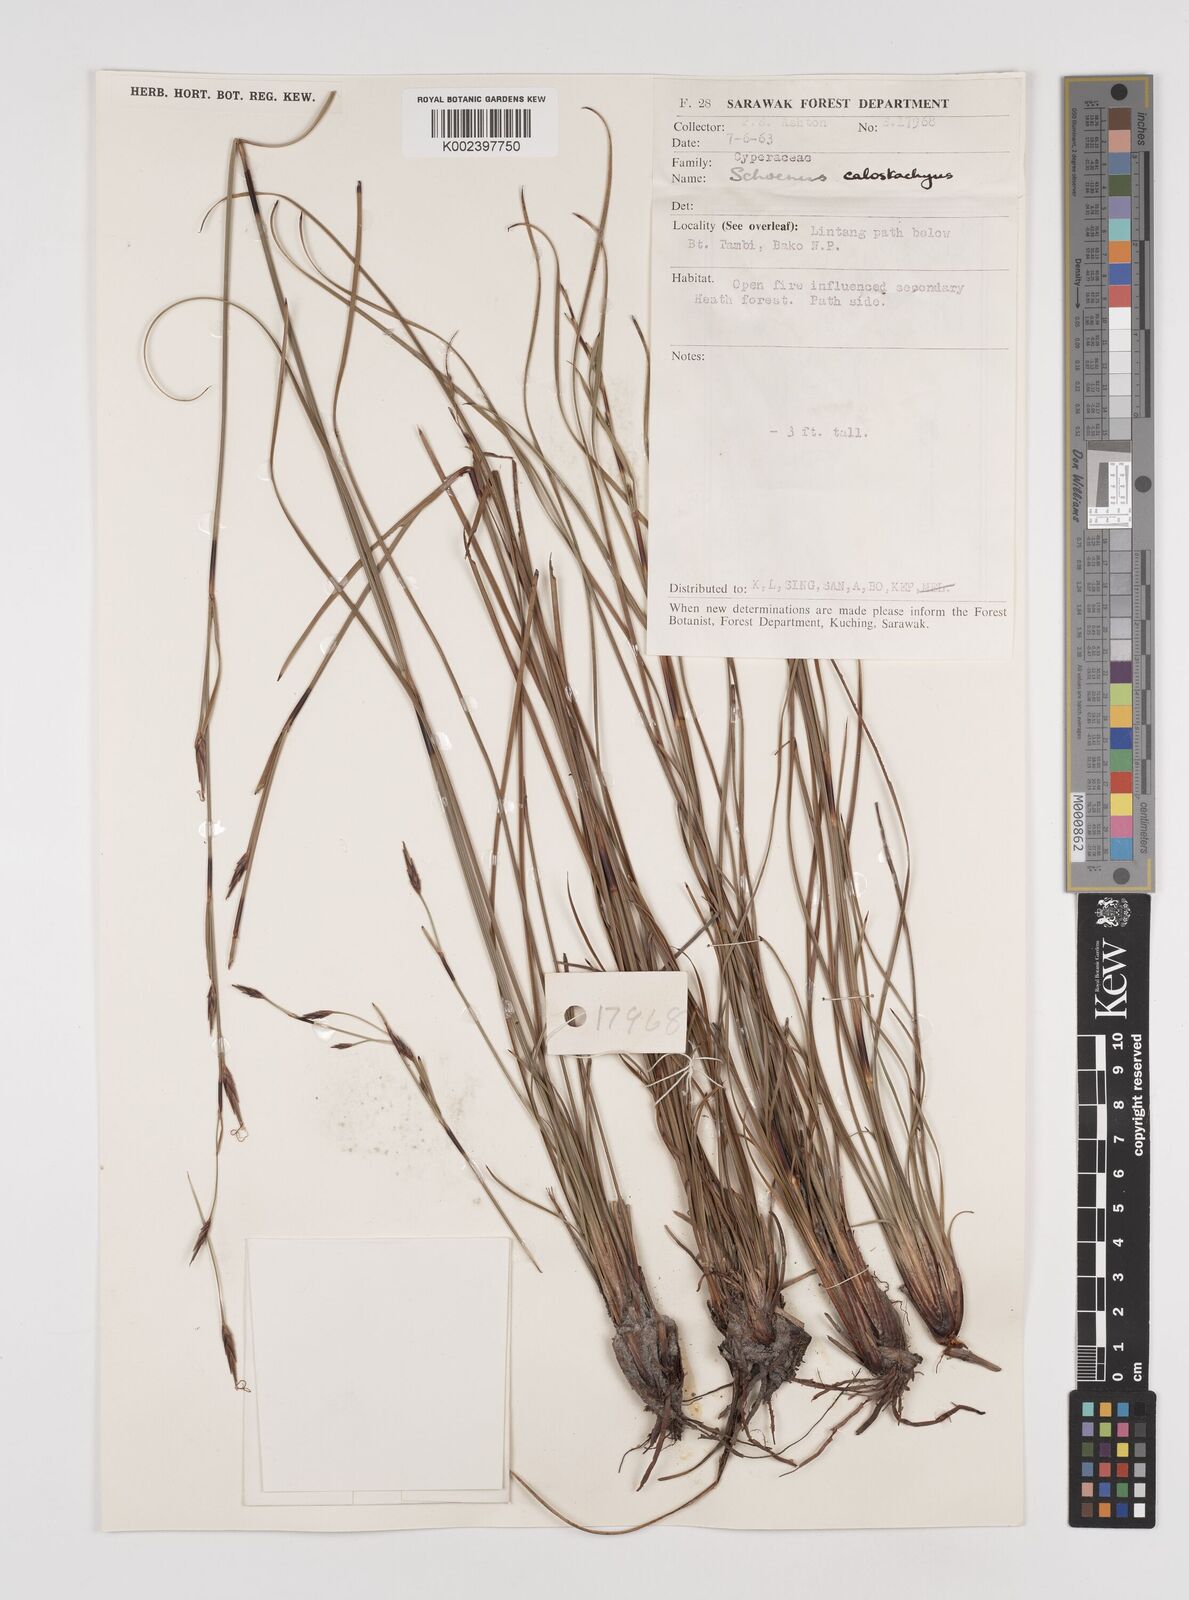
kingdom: Plantae
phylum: Tracheophyta
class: Liliopsida
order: Poales
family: Cyperaceae
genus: Schoenus
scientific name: Schoenus calostachyus
